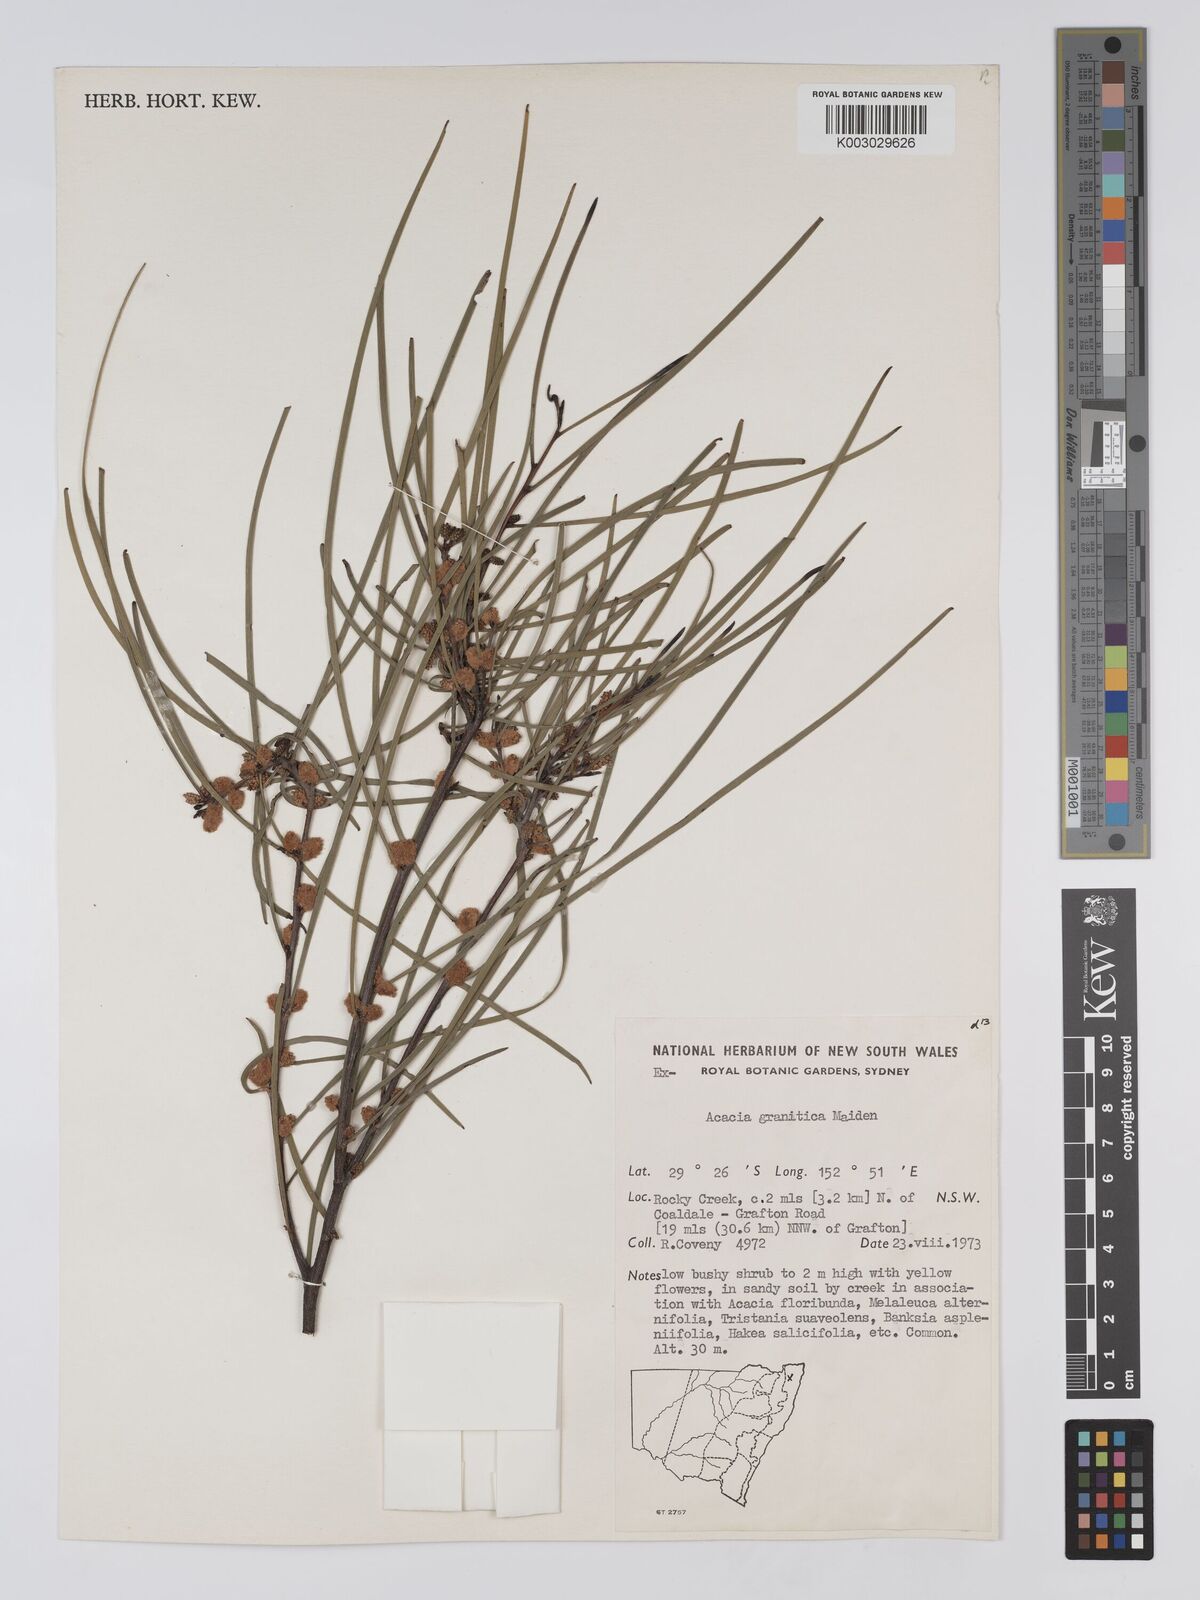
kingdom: Plantae
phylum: Tracheophyta
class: Magnoliopsida
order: Fabales
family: Fabaceae
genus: Acacia
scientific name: Acacia granitica
